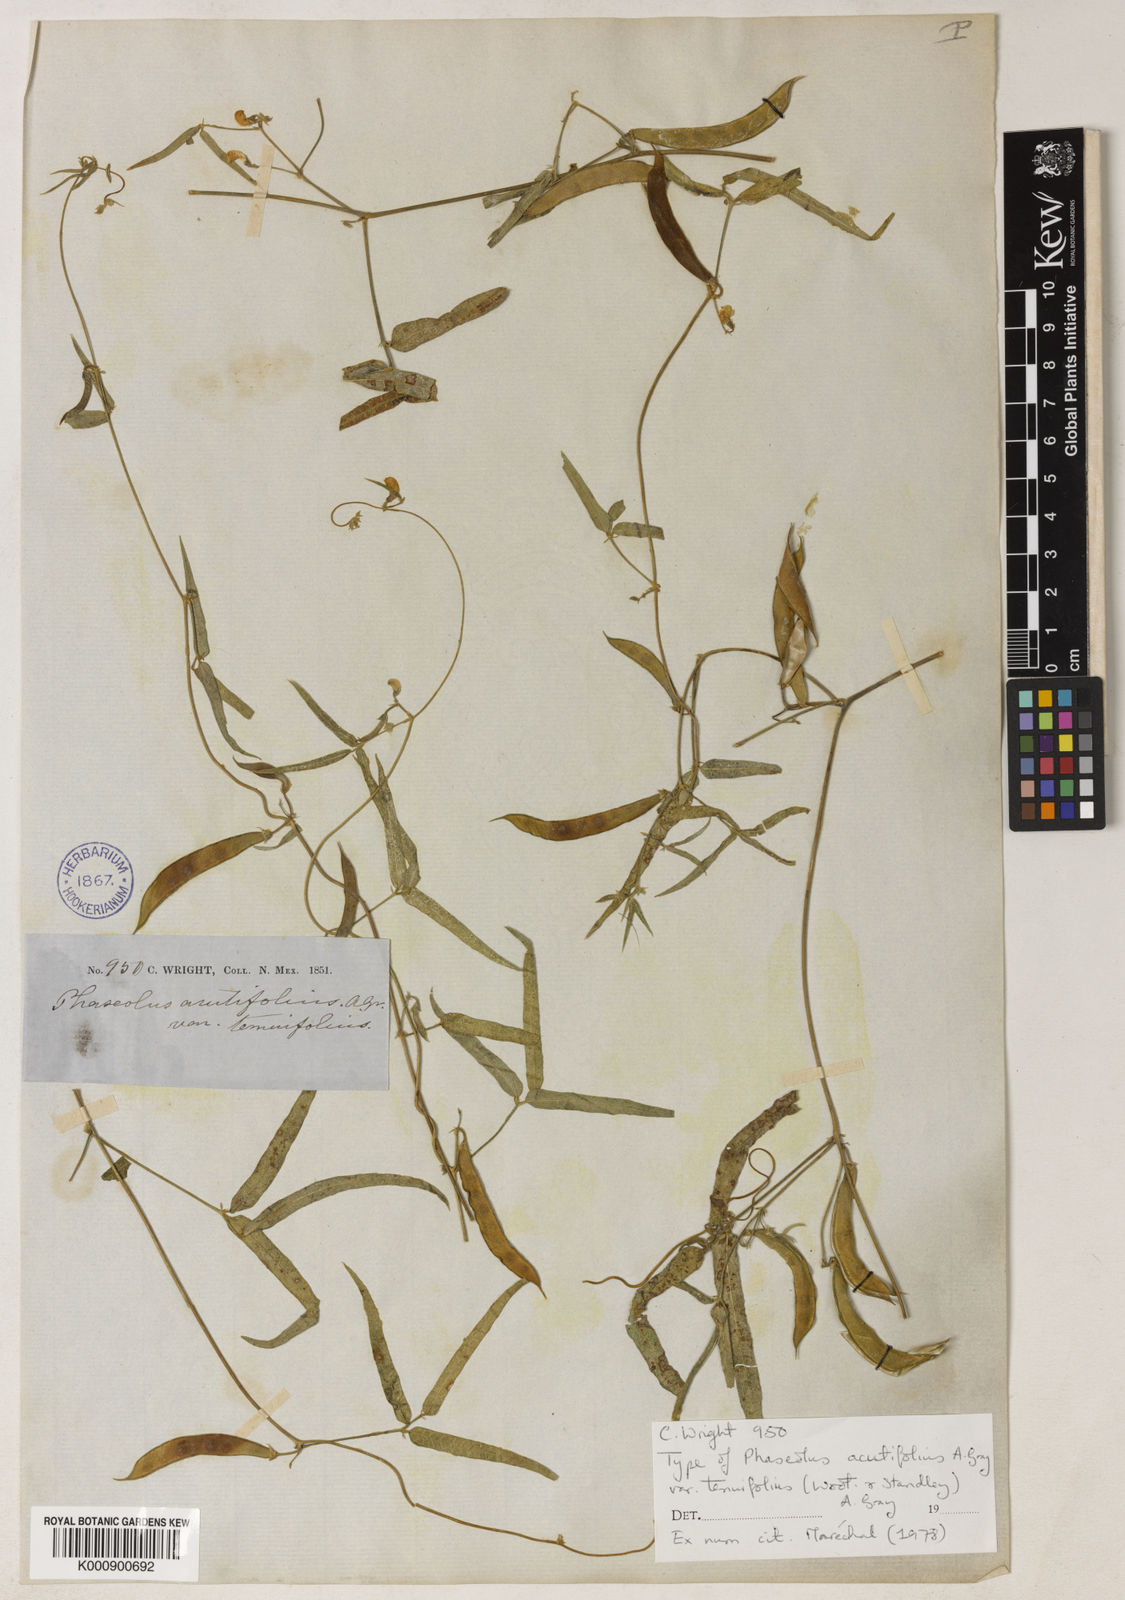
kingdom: Plantae
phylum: Tracheophyta
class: Magnoliopsida
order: Fabales
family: Fabaceae
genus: Phaseolus
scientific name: Phaseolus acutifolius
